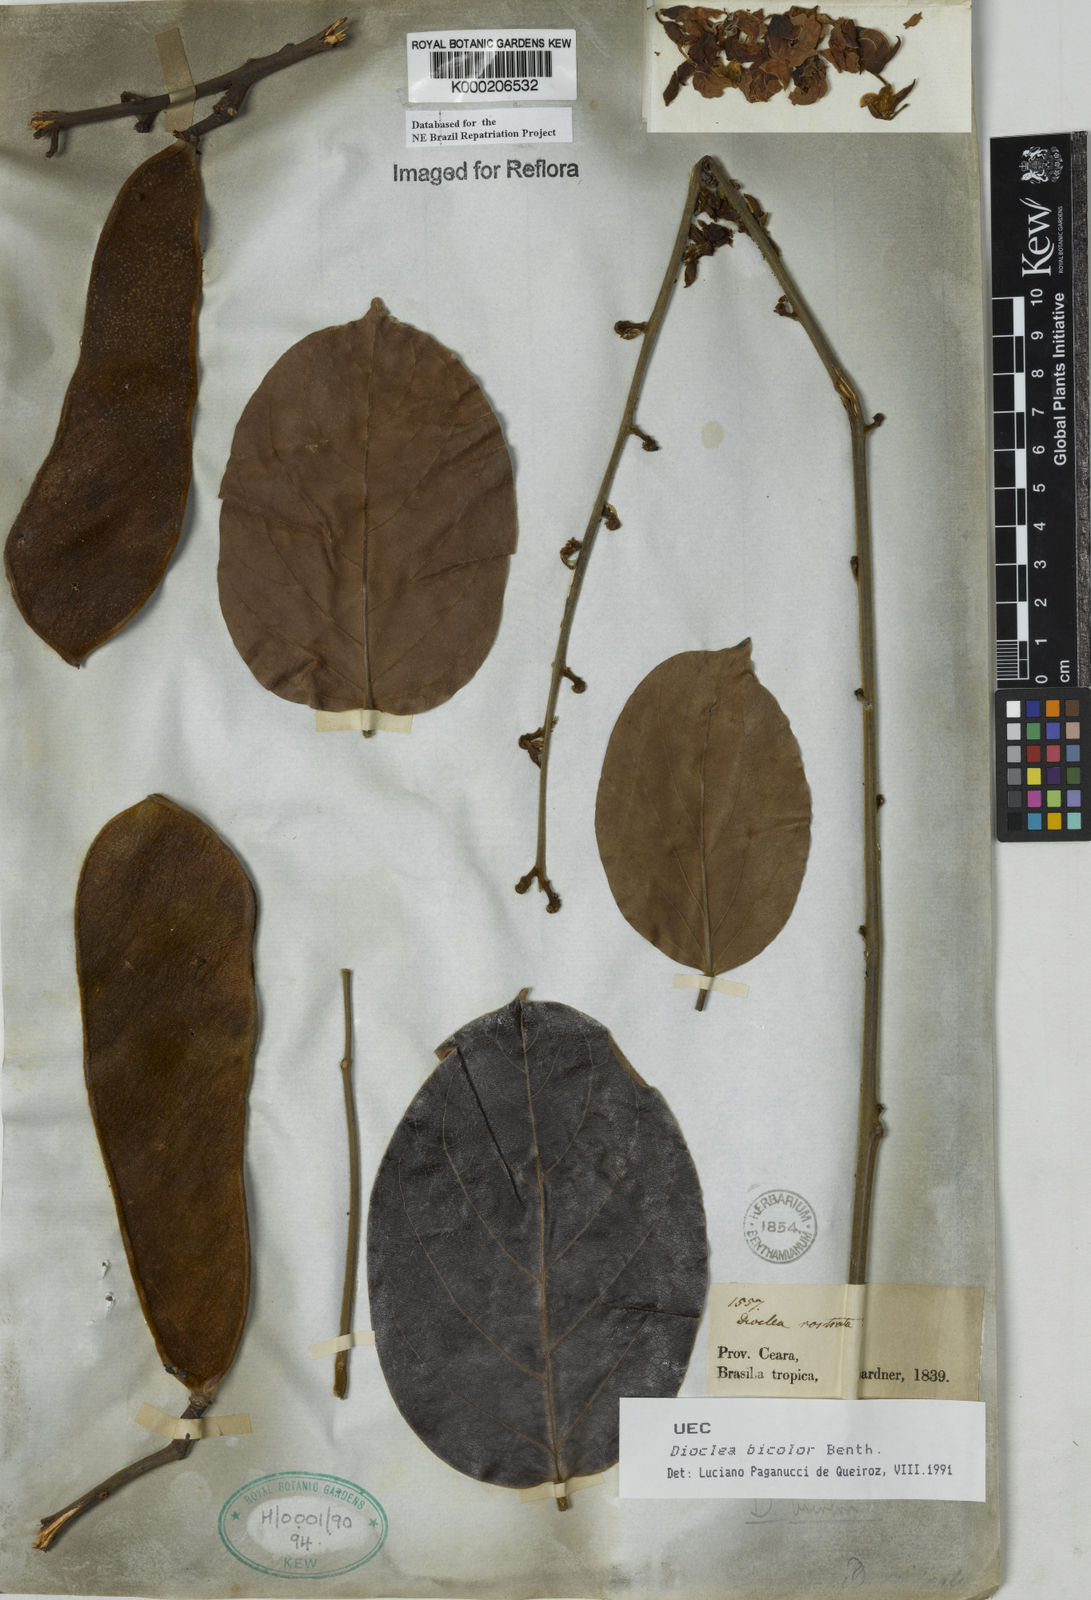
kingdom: Plantae
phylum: Tracheophyta
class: Magnoliopsida
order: Fabales
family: Fabaceae
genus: Macropsychanthus
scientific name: Macropsychanthus bicolor
